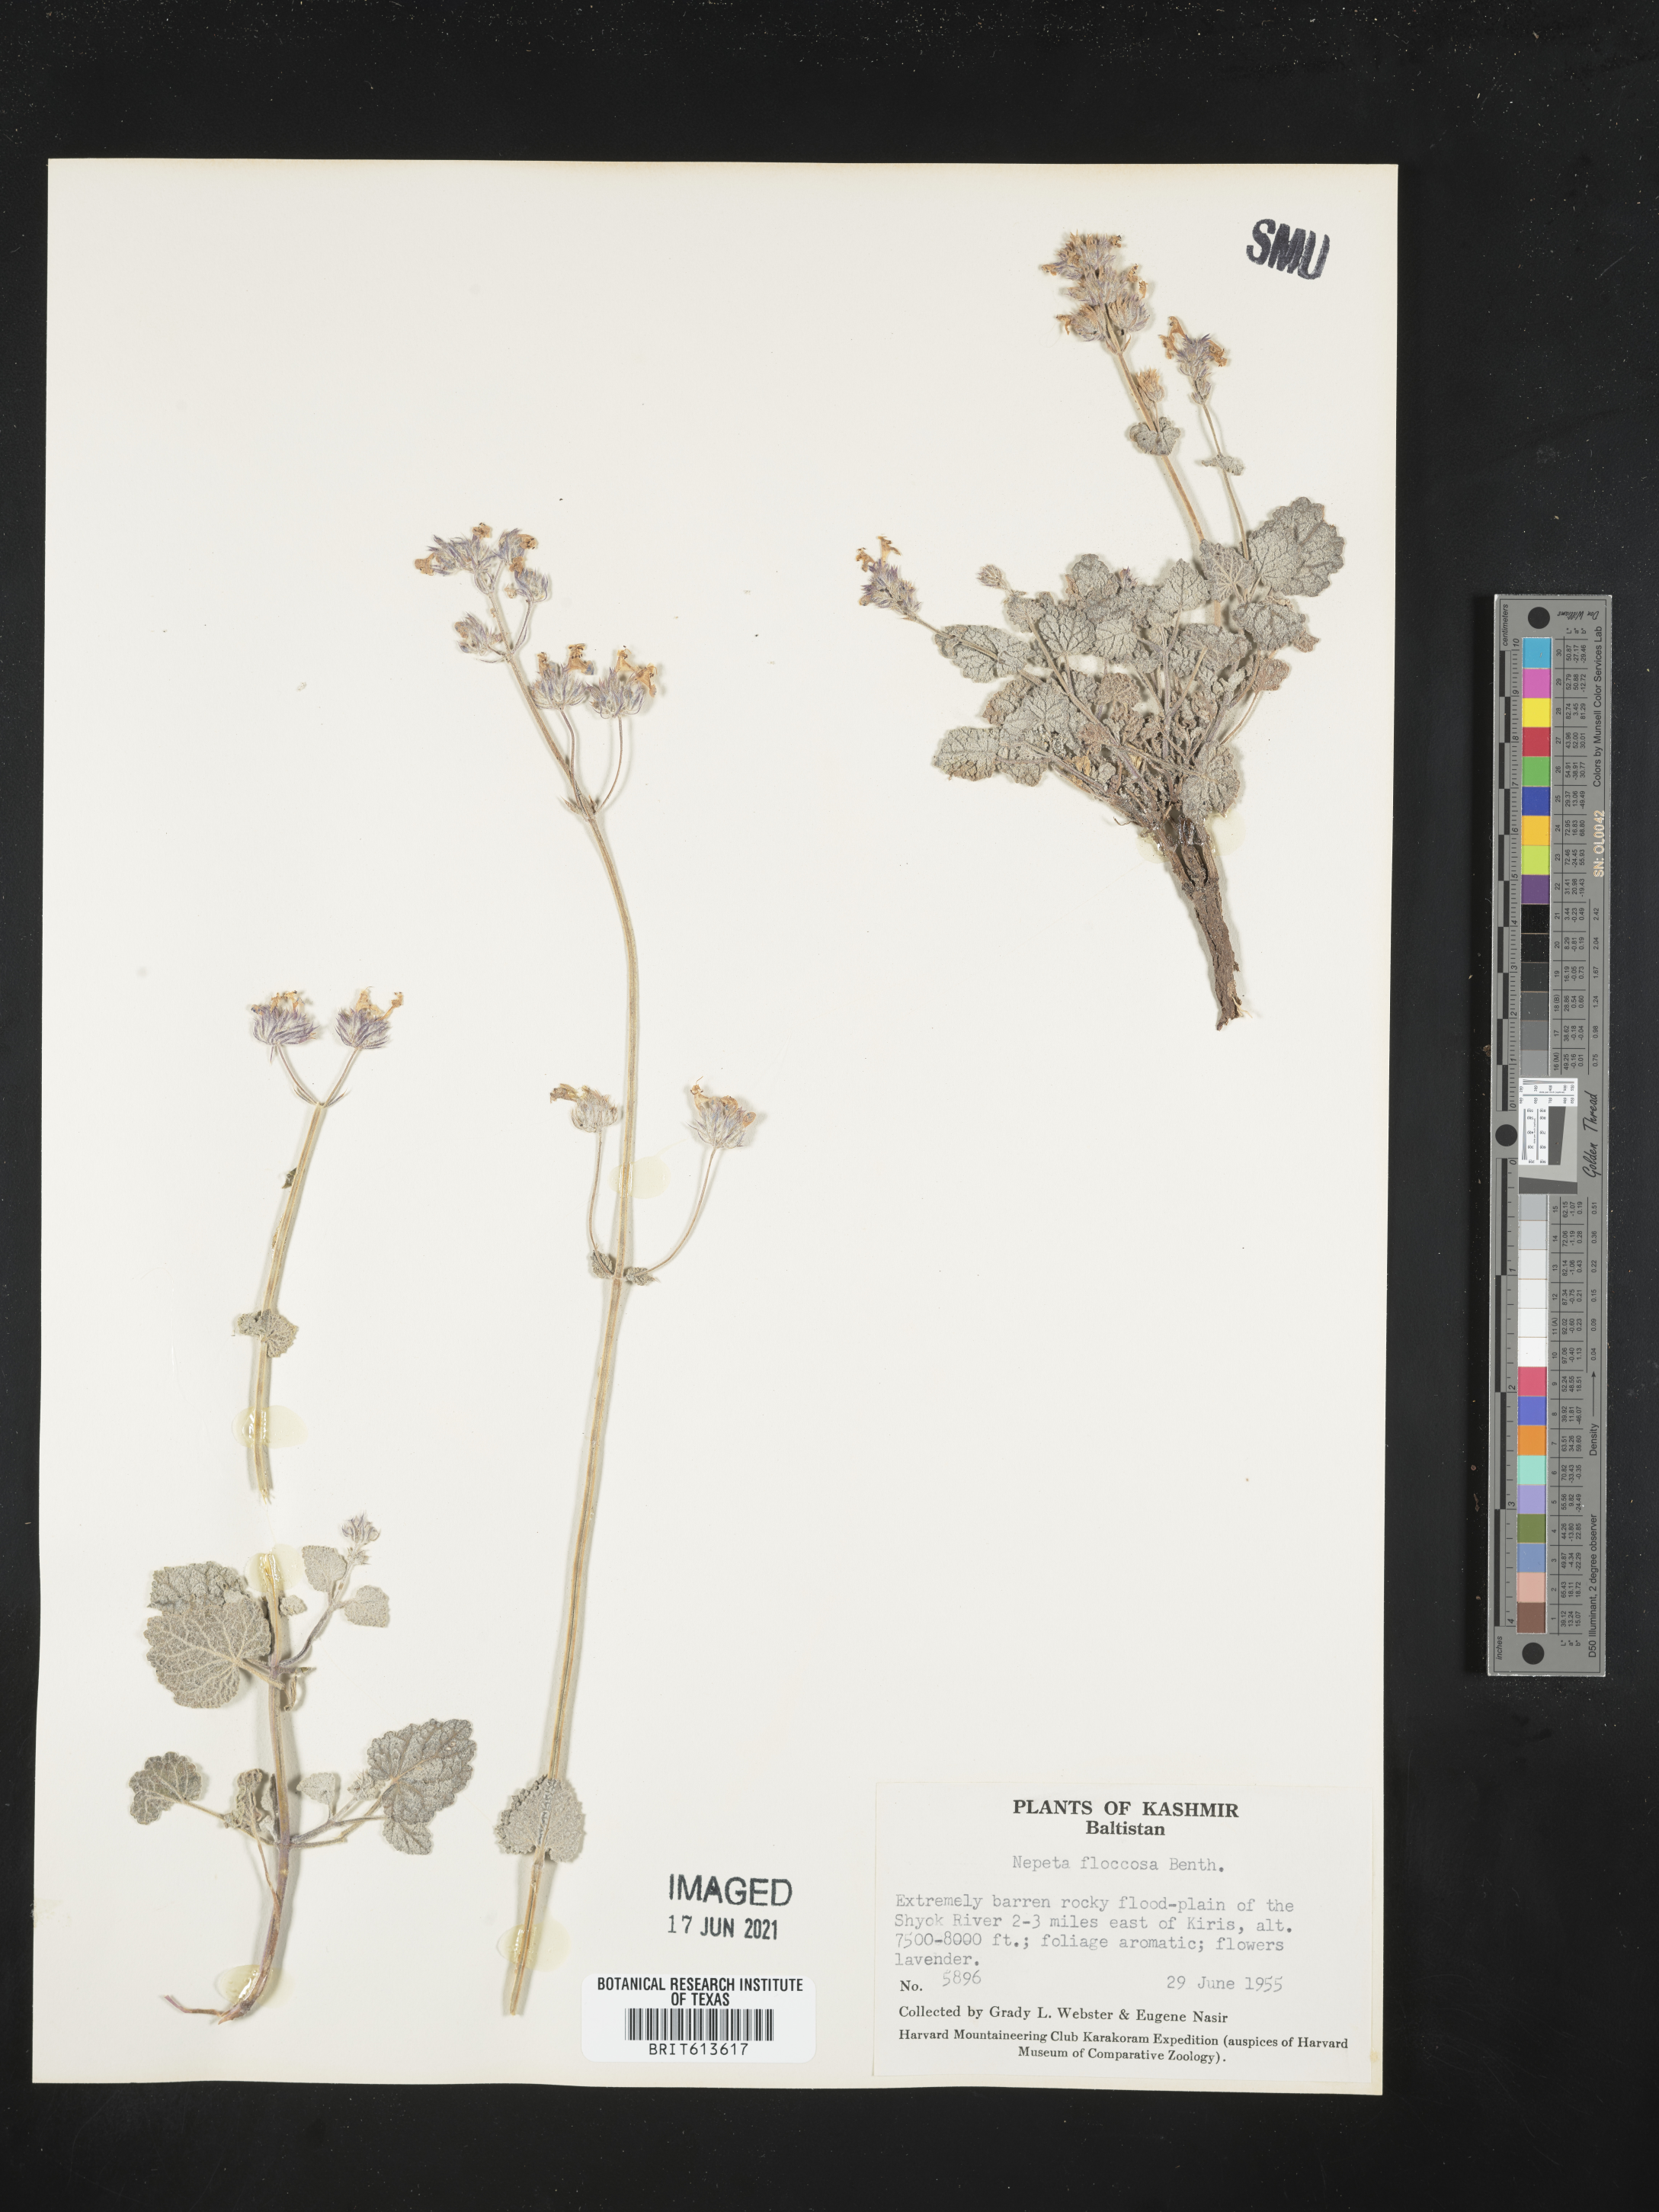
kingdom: Plantae
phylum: Tracheophyta
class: Magnoliopsida
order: Lamiales
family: Lamiaceae
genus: Nepeta
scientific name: Nepeta floccosa
